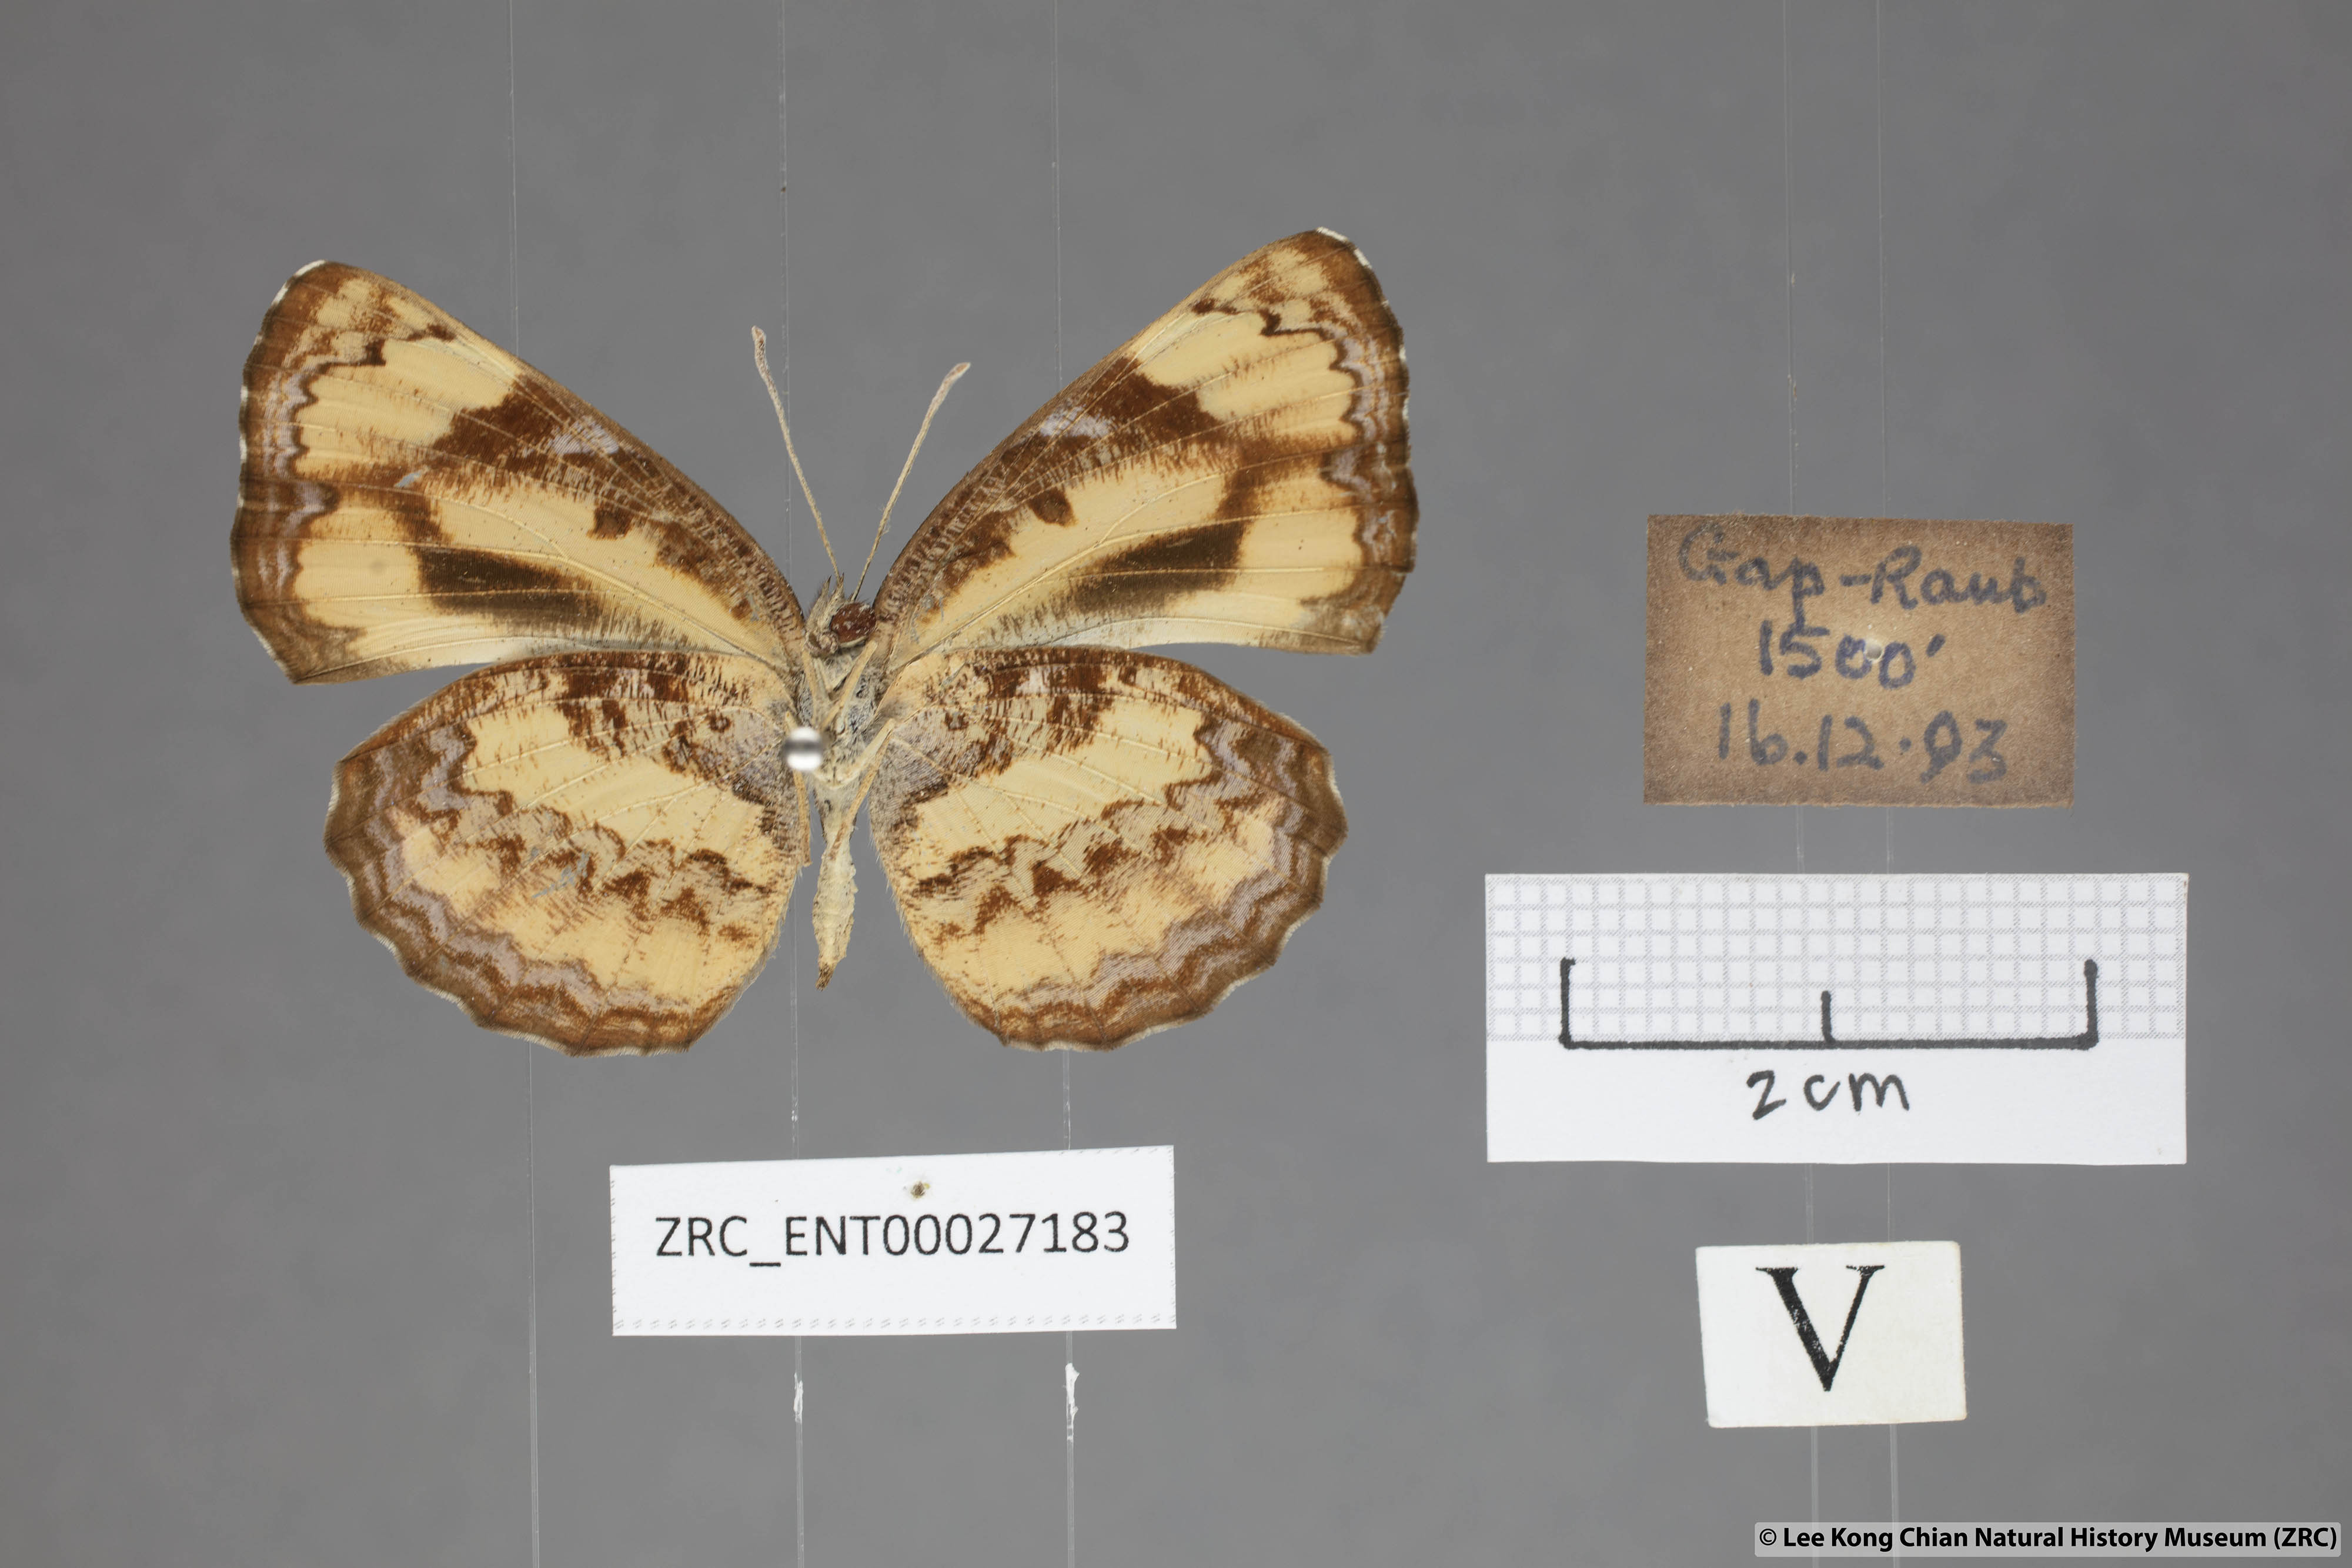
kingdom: Animalia
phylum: Arthropoda
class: Insecta
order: Lepidoptera
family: Nymphalidae
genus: Pantoporia
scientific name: Pantoporia hordonia
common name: Common lascar
